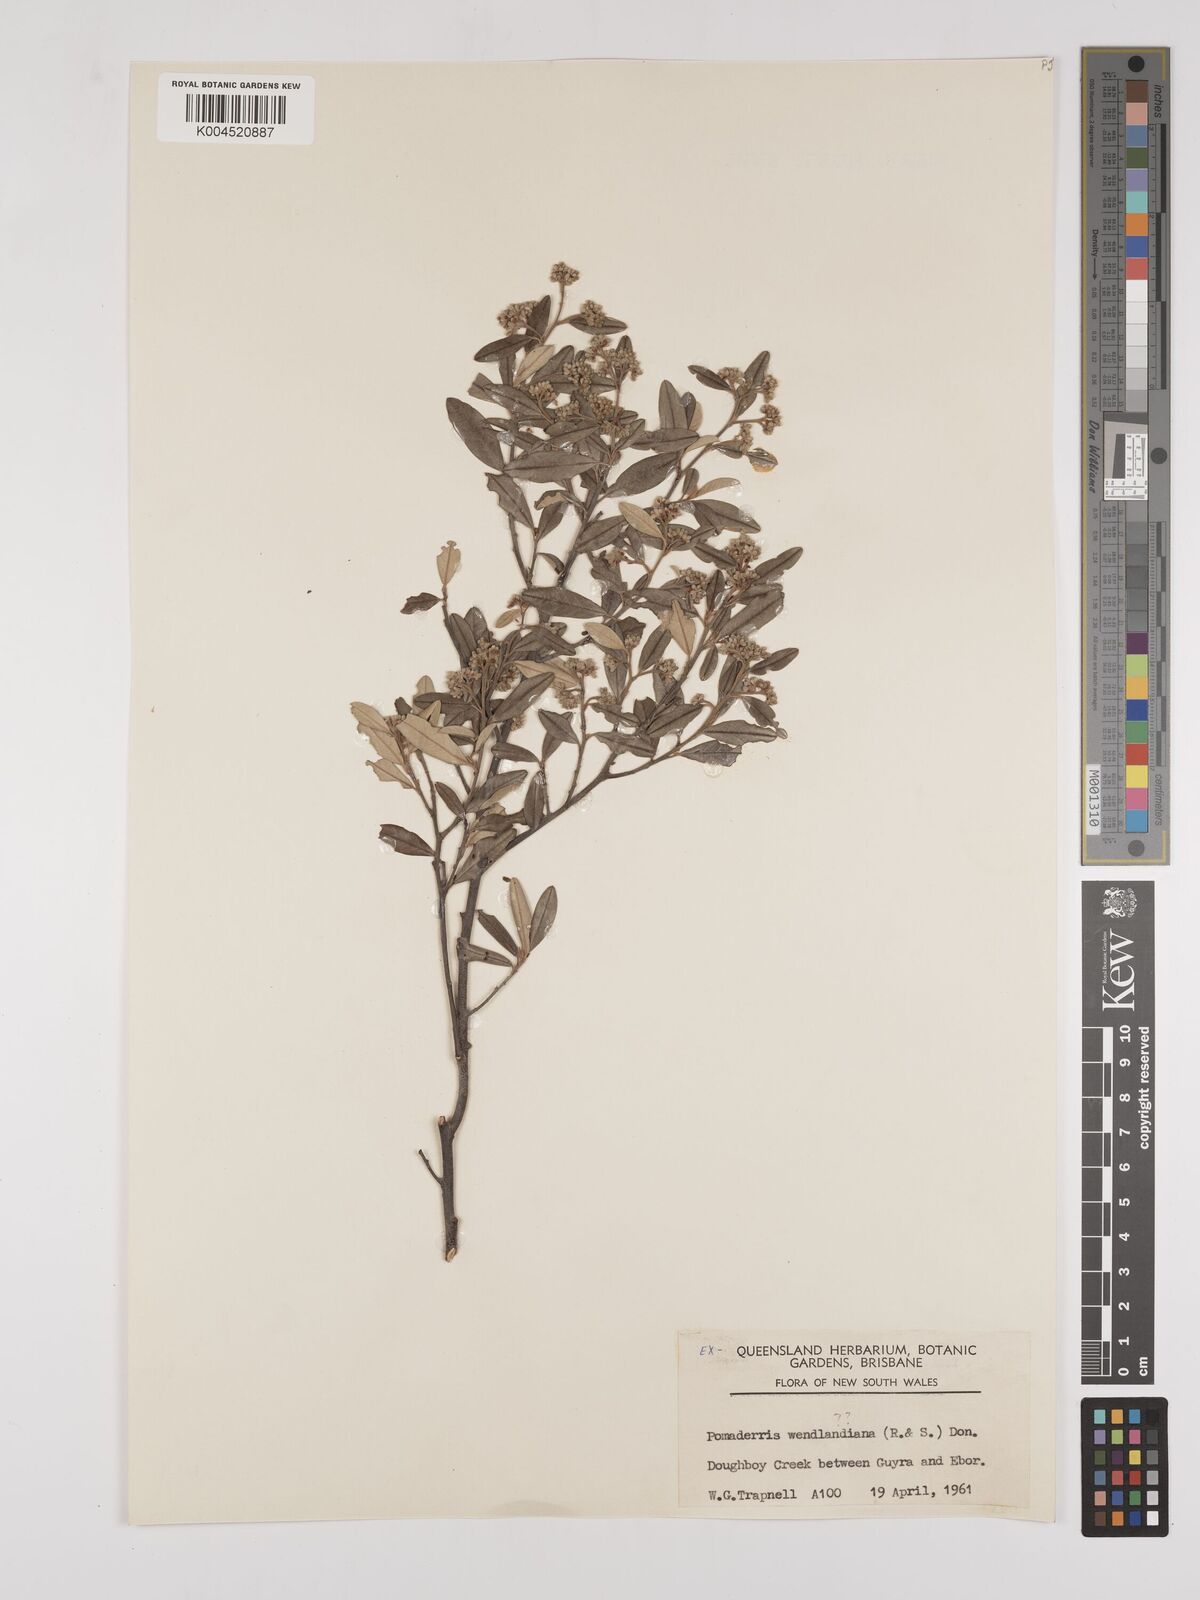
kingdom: Plantae
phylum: Tracheophyta
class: Magnoliopsida
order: Rosales
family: Rhamnaceae
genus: Pomaderris
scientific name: Pomaderris
